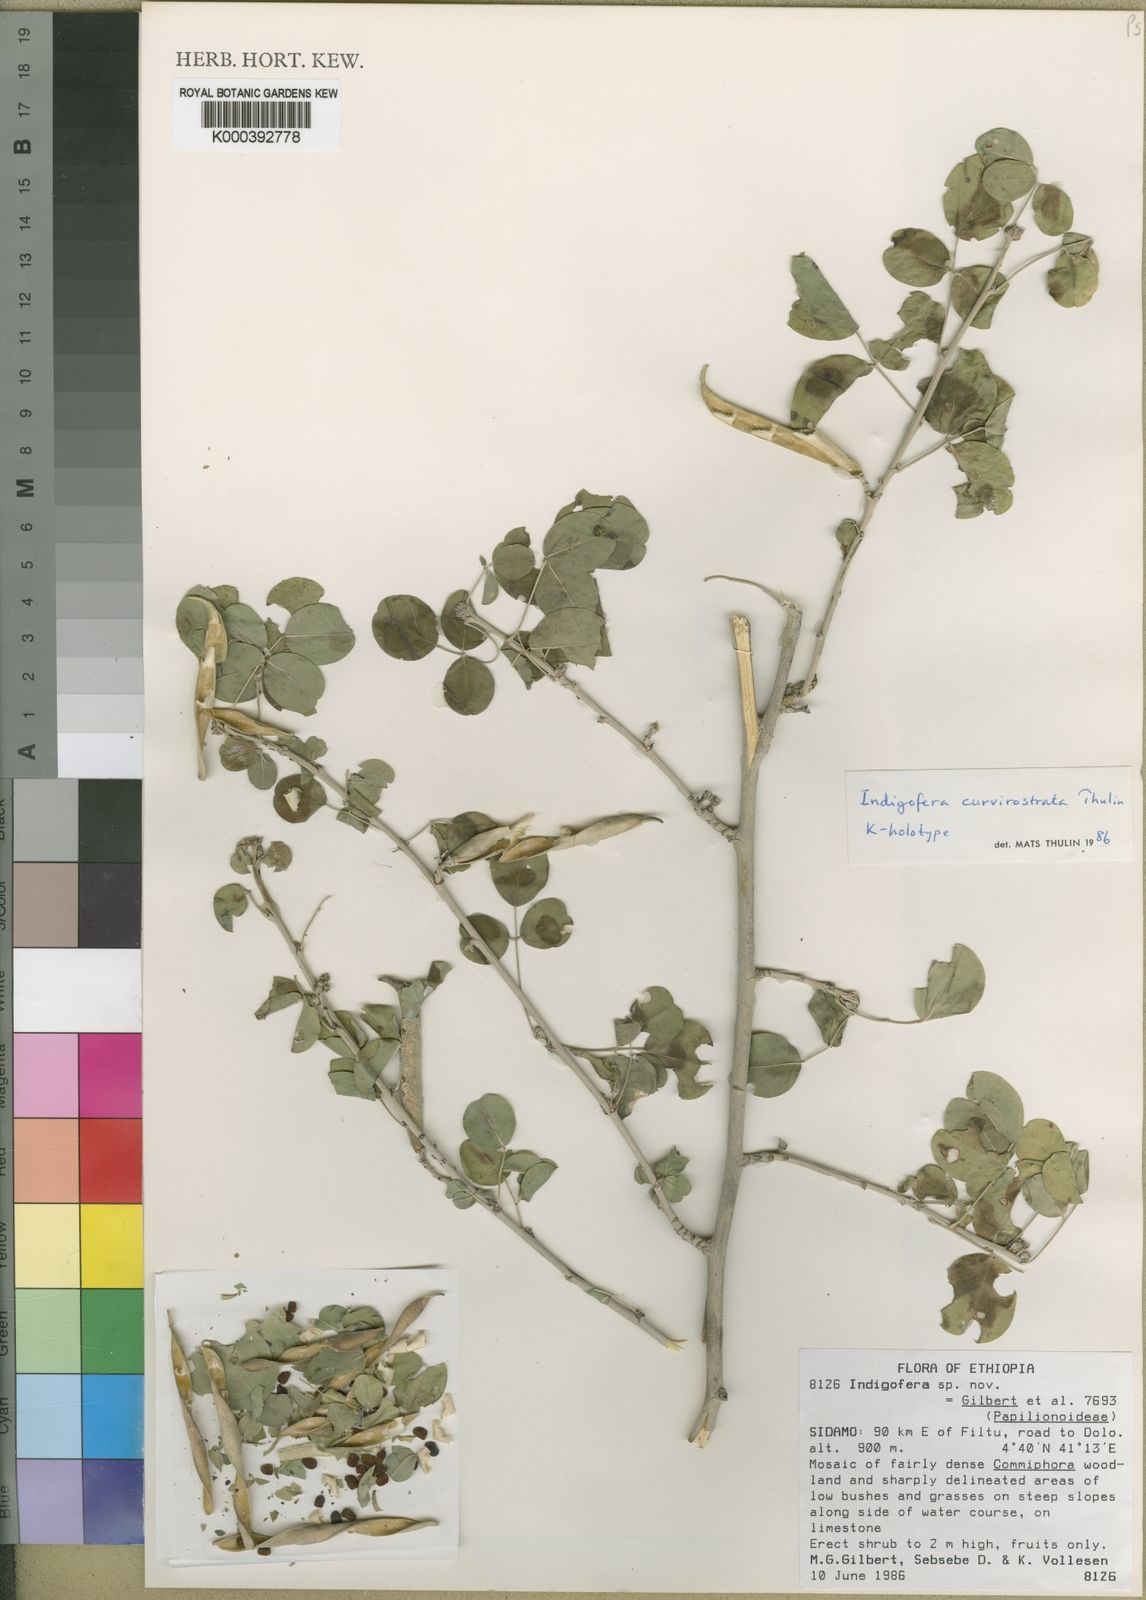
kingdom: Plantae
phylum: Tracheophyta
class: Magnoliopsida
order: Fabales
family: Fabaceae
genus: Indigofera
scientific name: Indigofera curvirostrata
